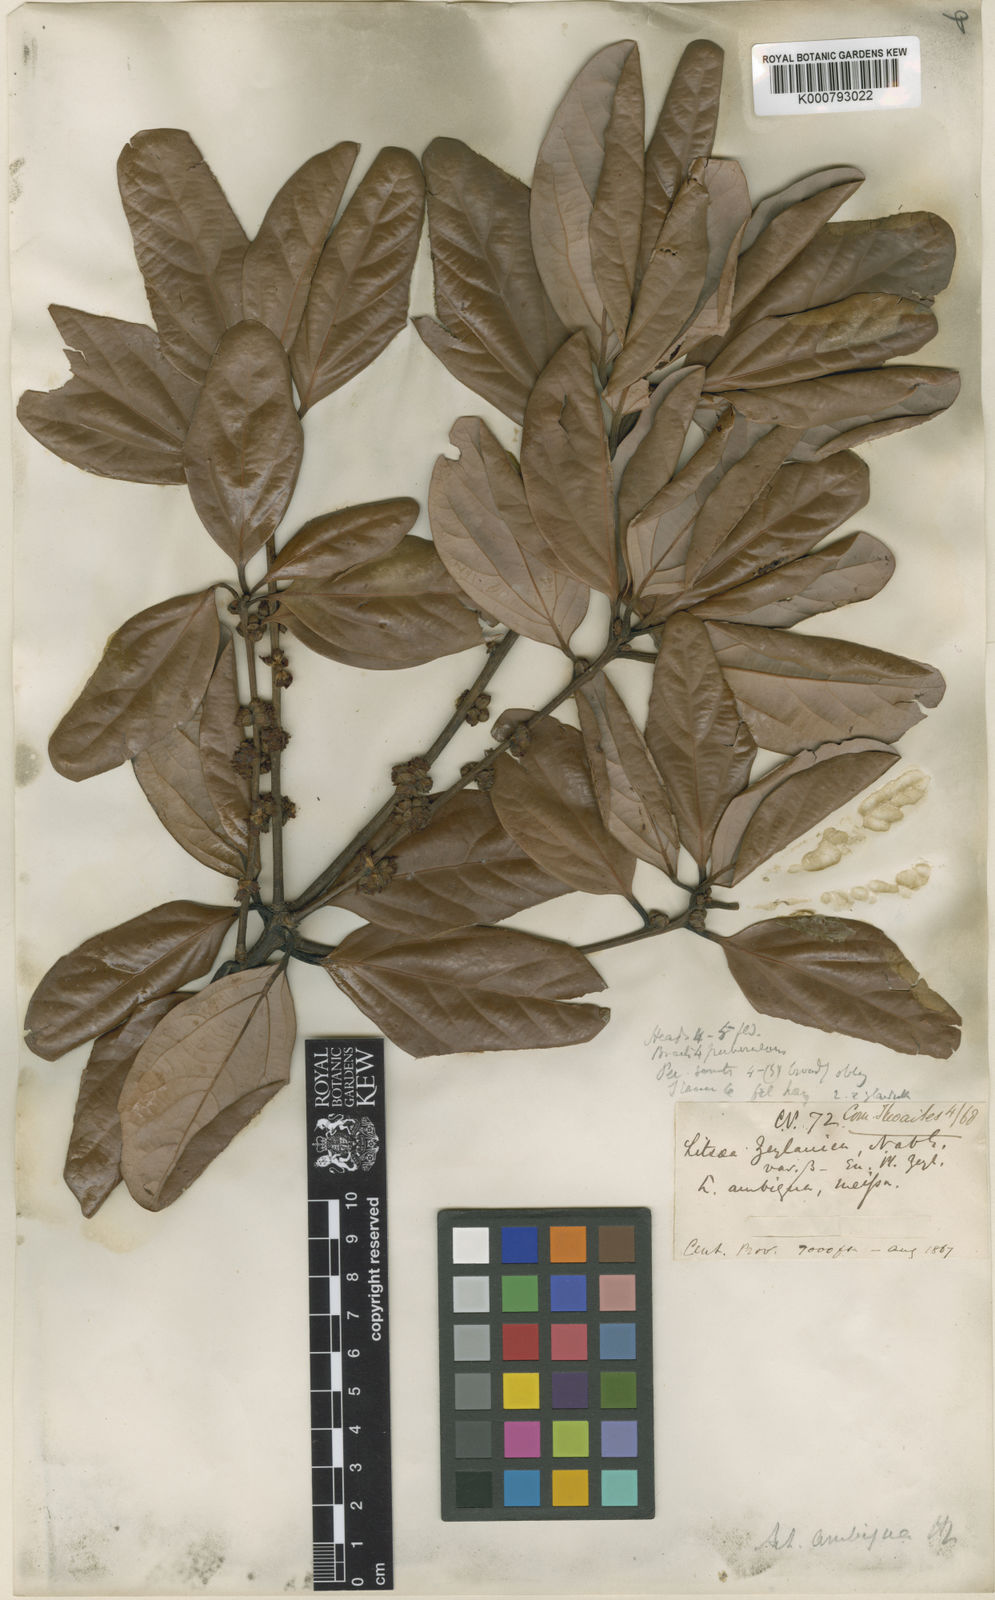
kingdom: Plantae
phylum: Tracheophyta
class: Magnoliopsida
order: Laurales
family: Lauraceae
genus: Actinodaphne
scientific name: Actinodaphne ambigua
